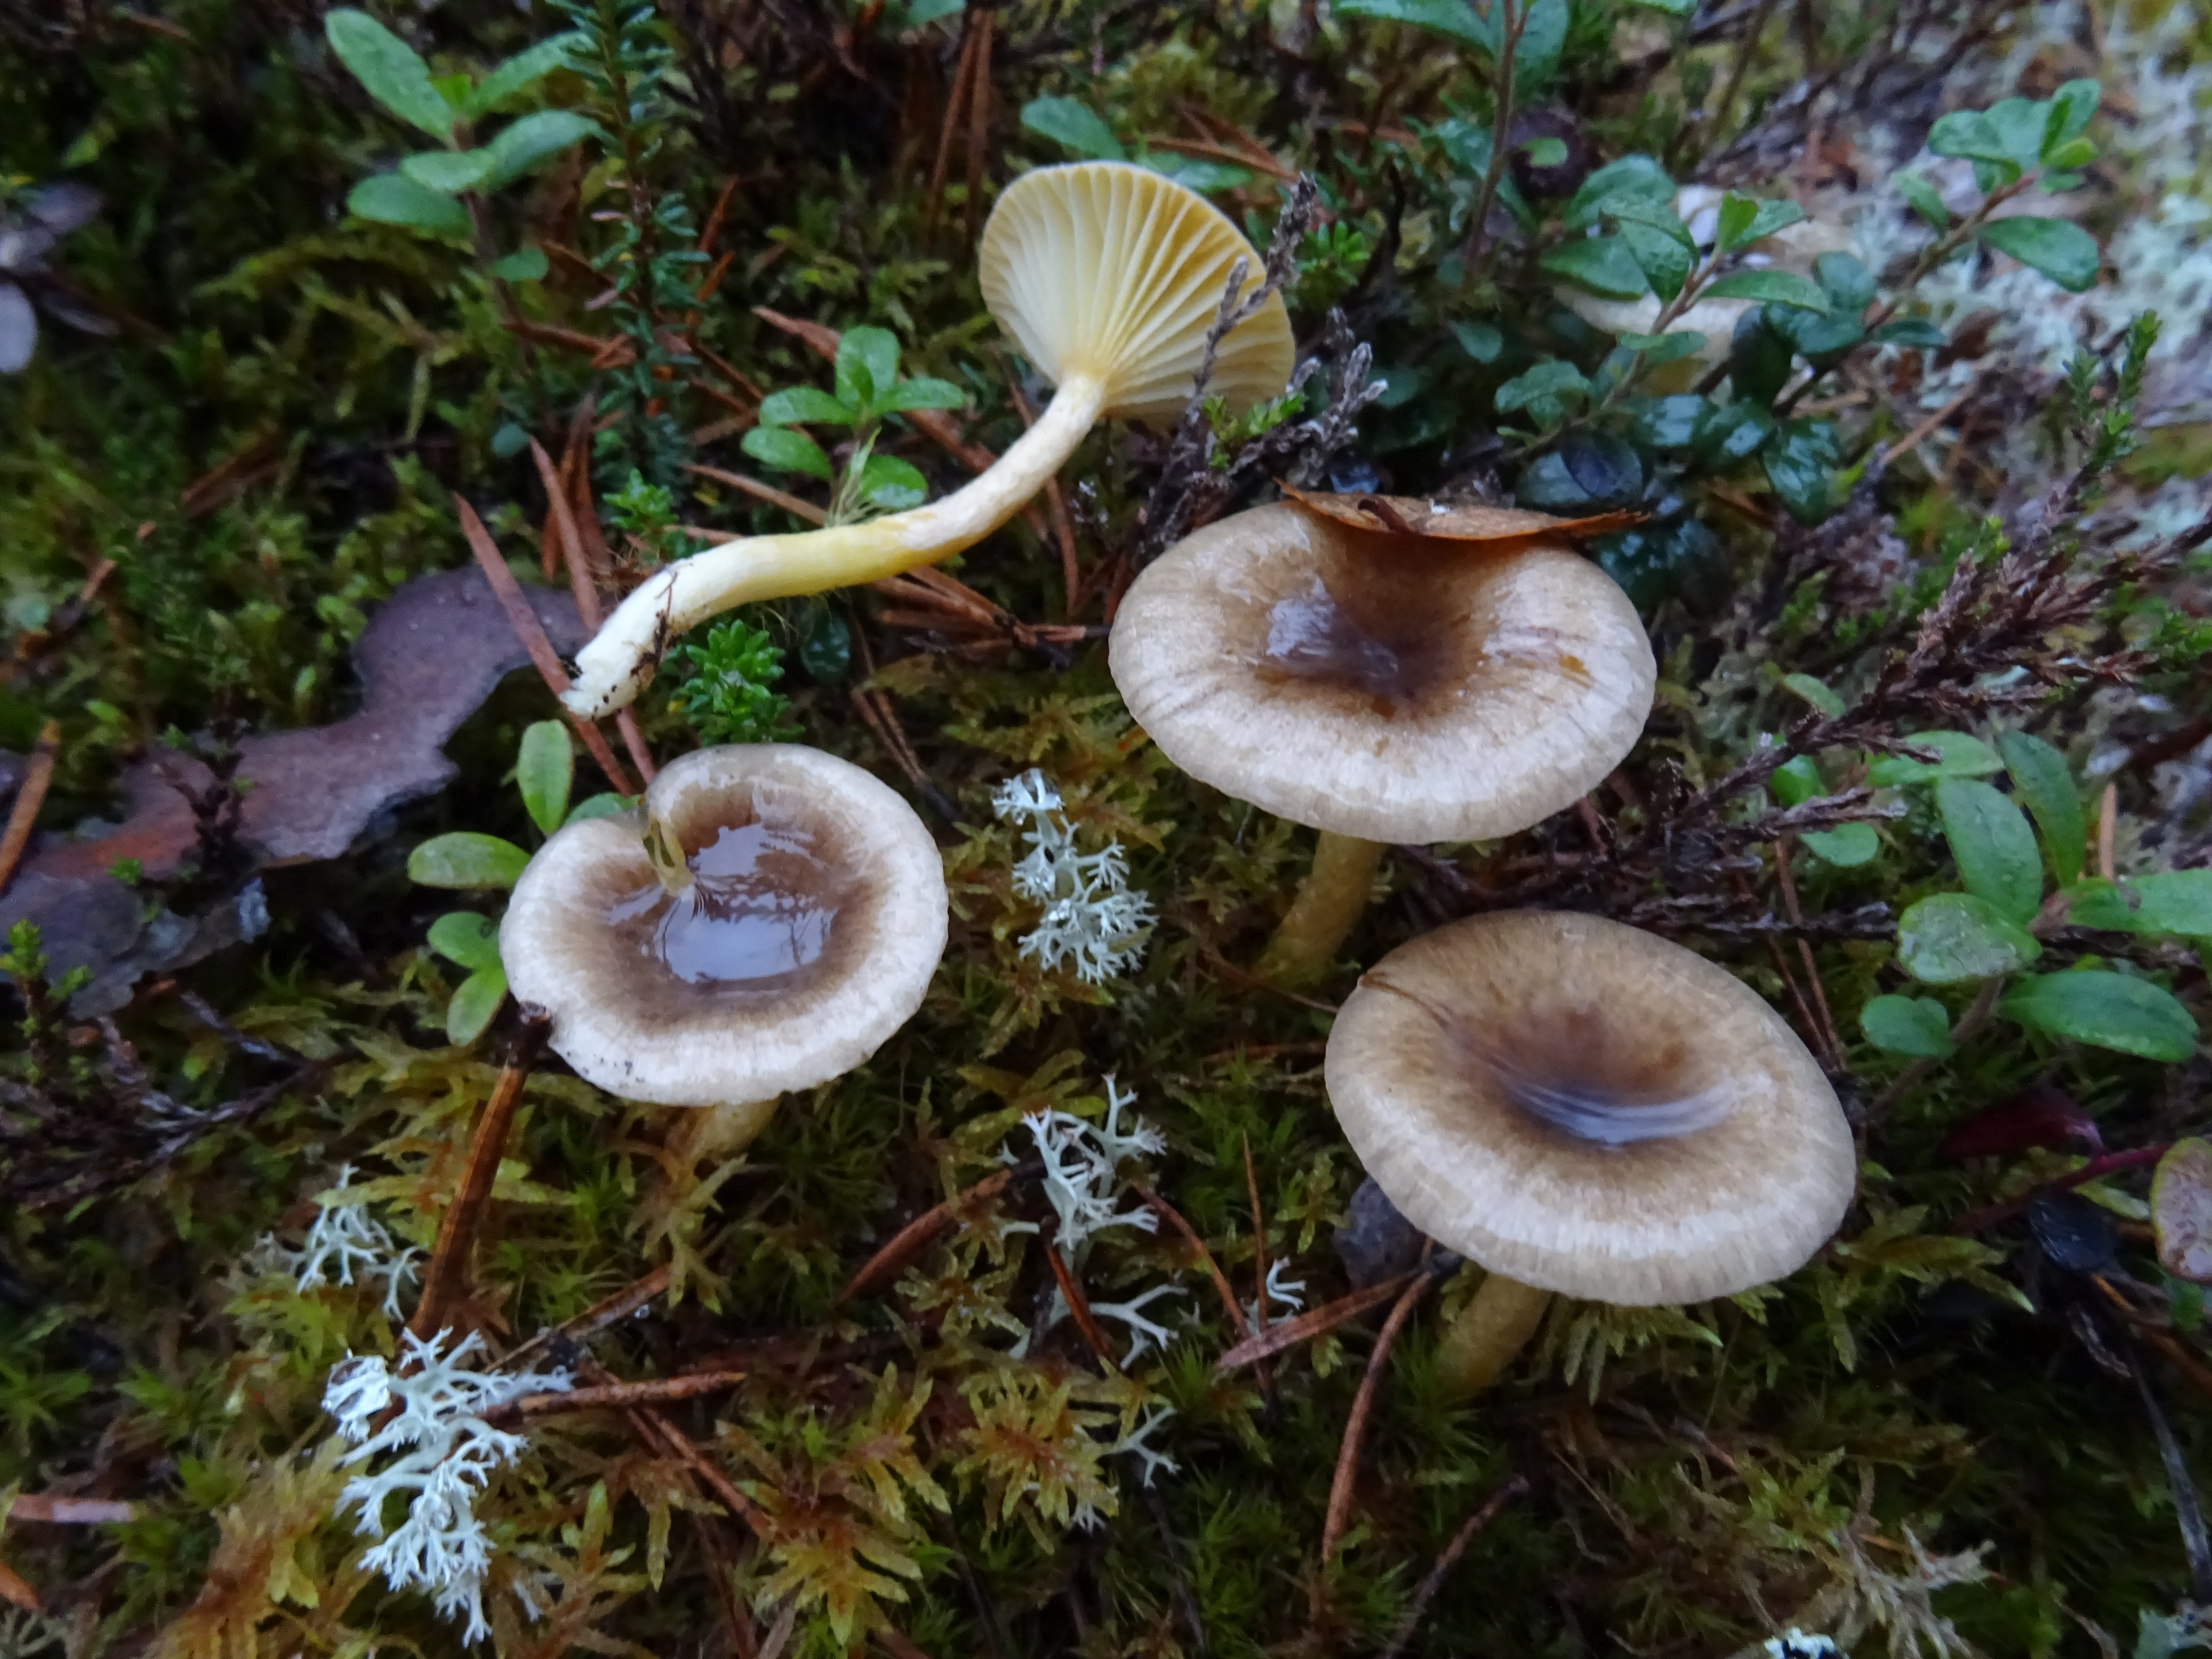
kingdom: Fungi
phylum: Basidiomycota
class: Agaricomycetes
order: Agaricales
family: Hygrophoraceae
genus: Hygrophorus
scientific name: Hygrophorus hypothejus
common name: Herald of winter
